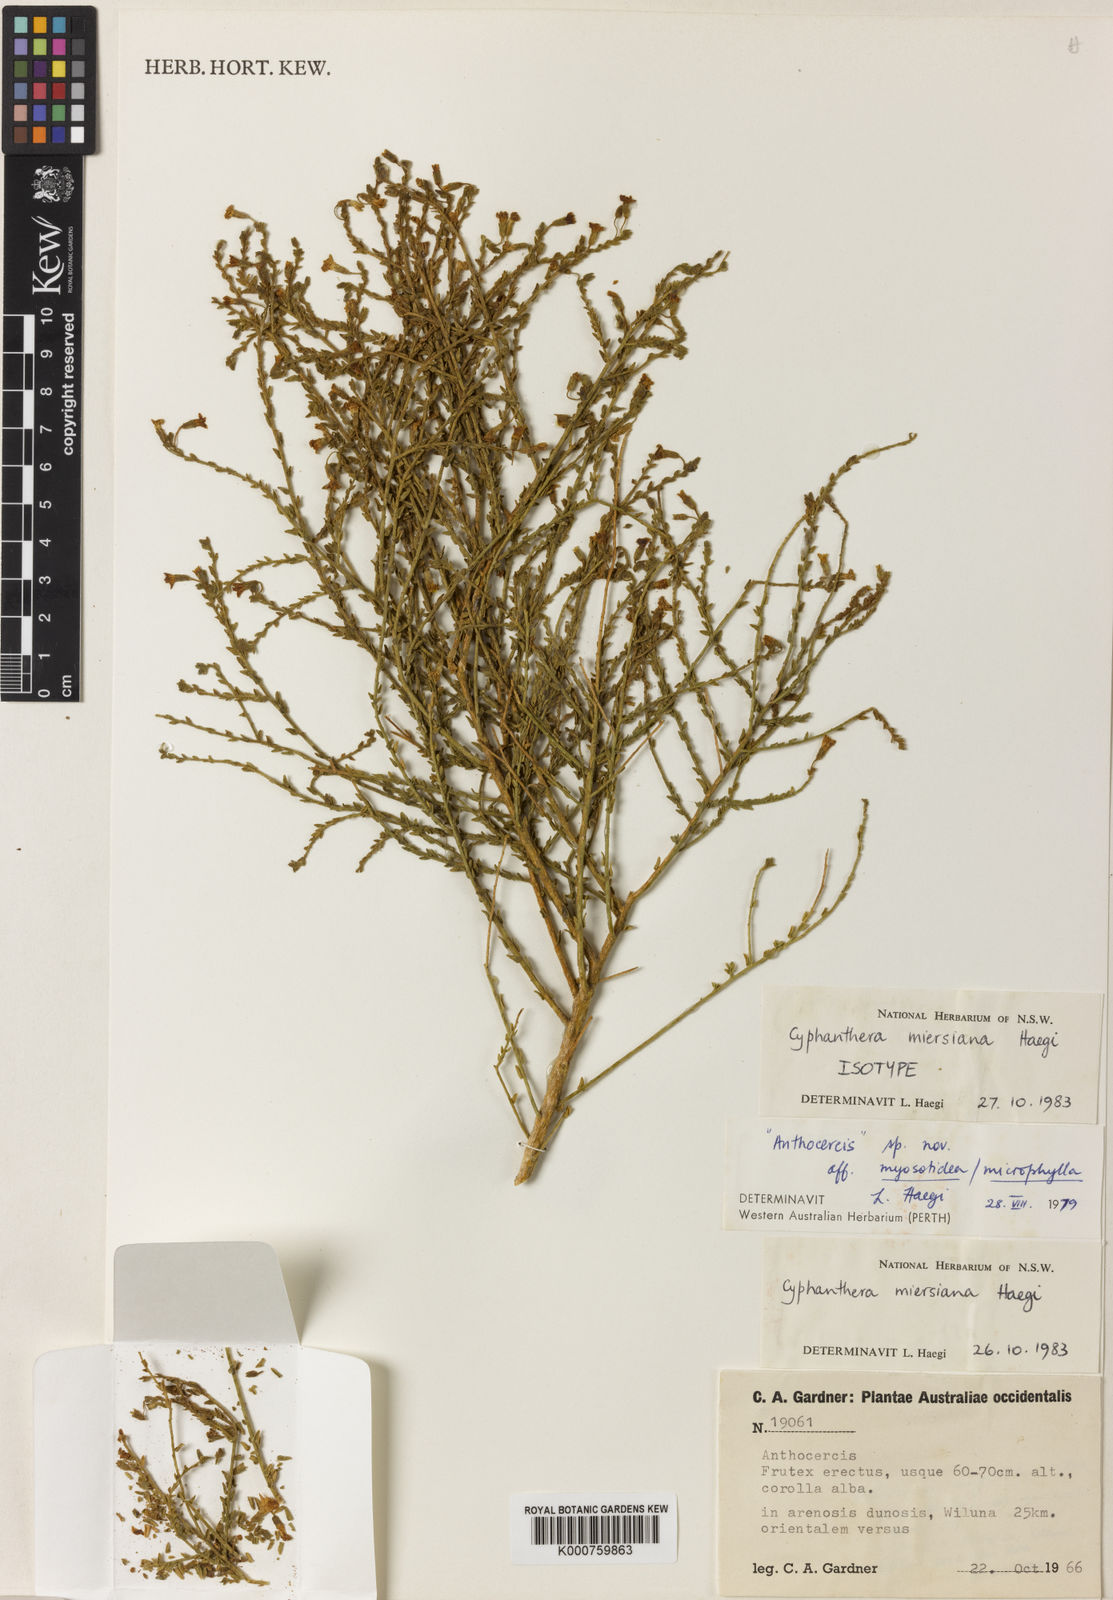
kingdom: Plantae
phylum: Tracheophyta
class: Magnoliopsida
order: Solanales
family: Solanaceae
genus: Cyphanthera
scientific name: Cyphanthera miersiana
